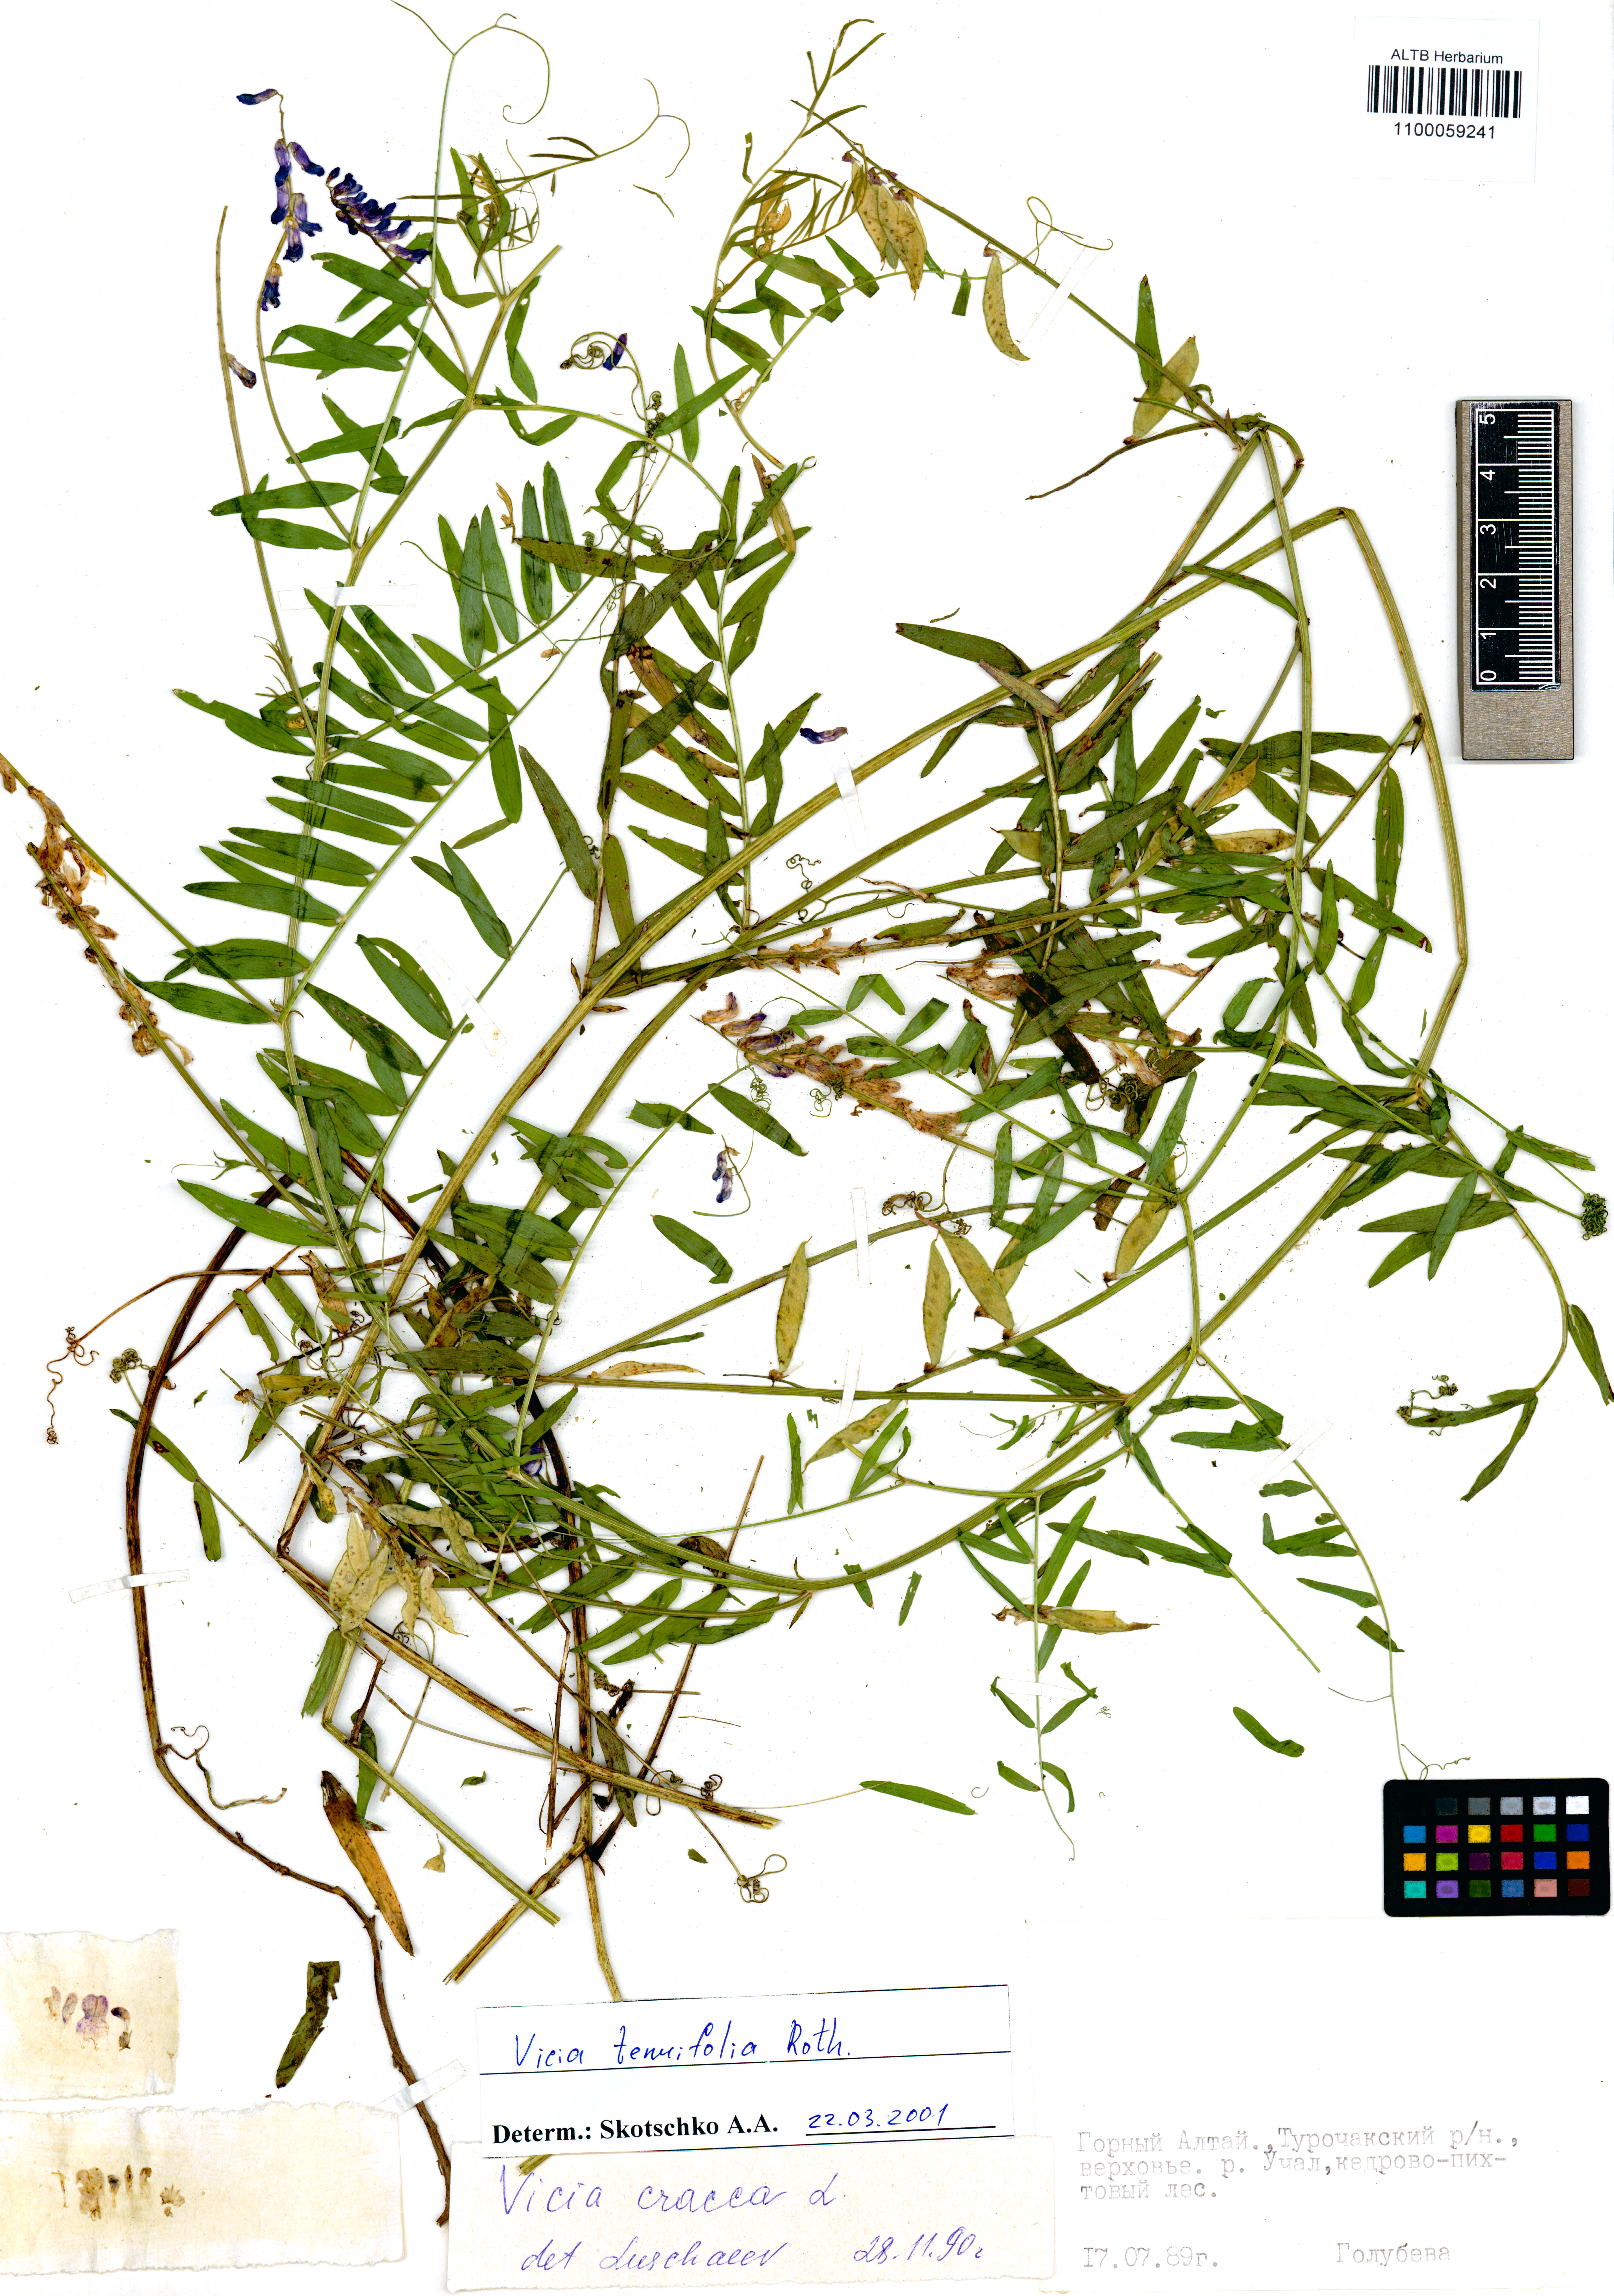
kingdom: Plantae
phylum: Tracheophyta
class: Magnoliopsida
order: Fabales
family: Fabaceae
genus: Vicia
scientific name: Vicia tenuifolia
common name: Fine-leaved vetch
